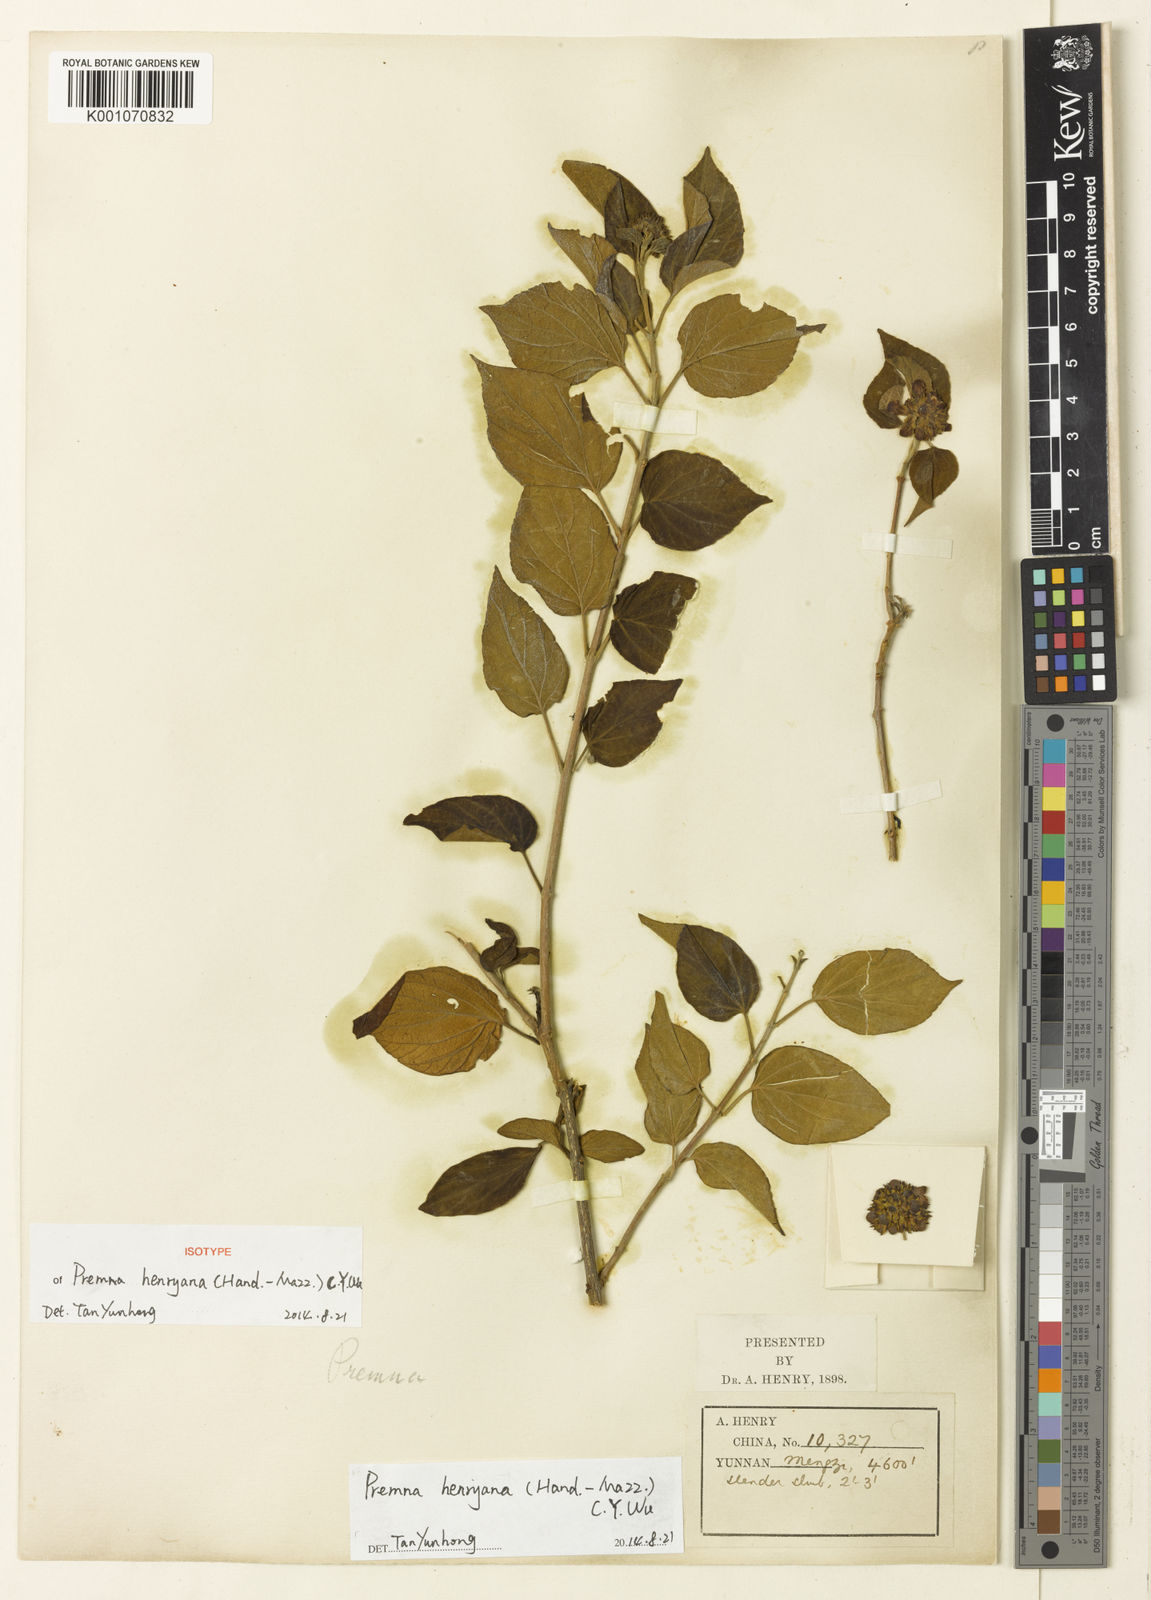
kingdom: Plantae
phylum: Tracheophyta
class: Magnoliopsida
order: Lamiales
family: Lamiaceae
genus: Premna
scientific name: Premna henryana
